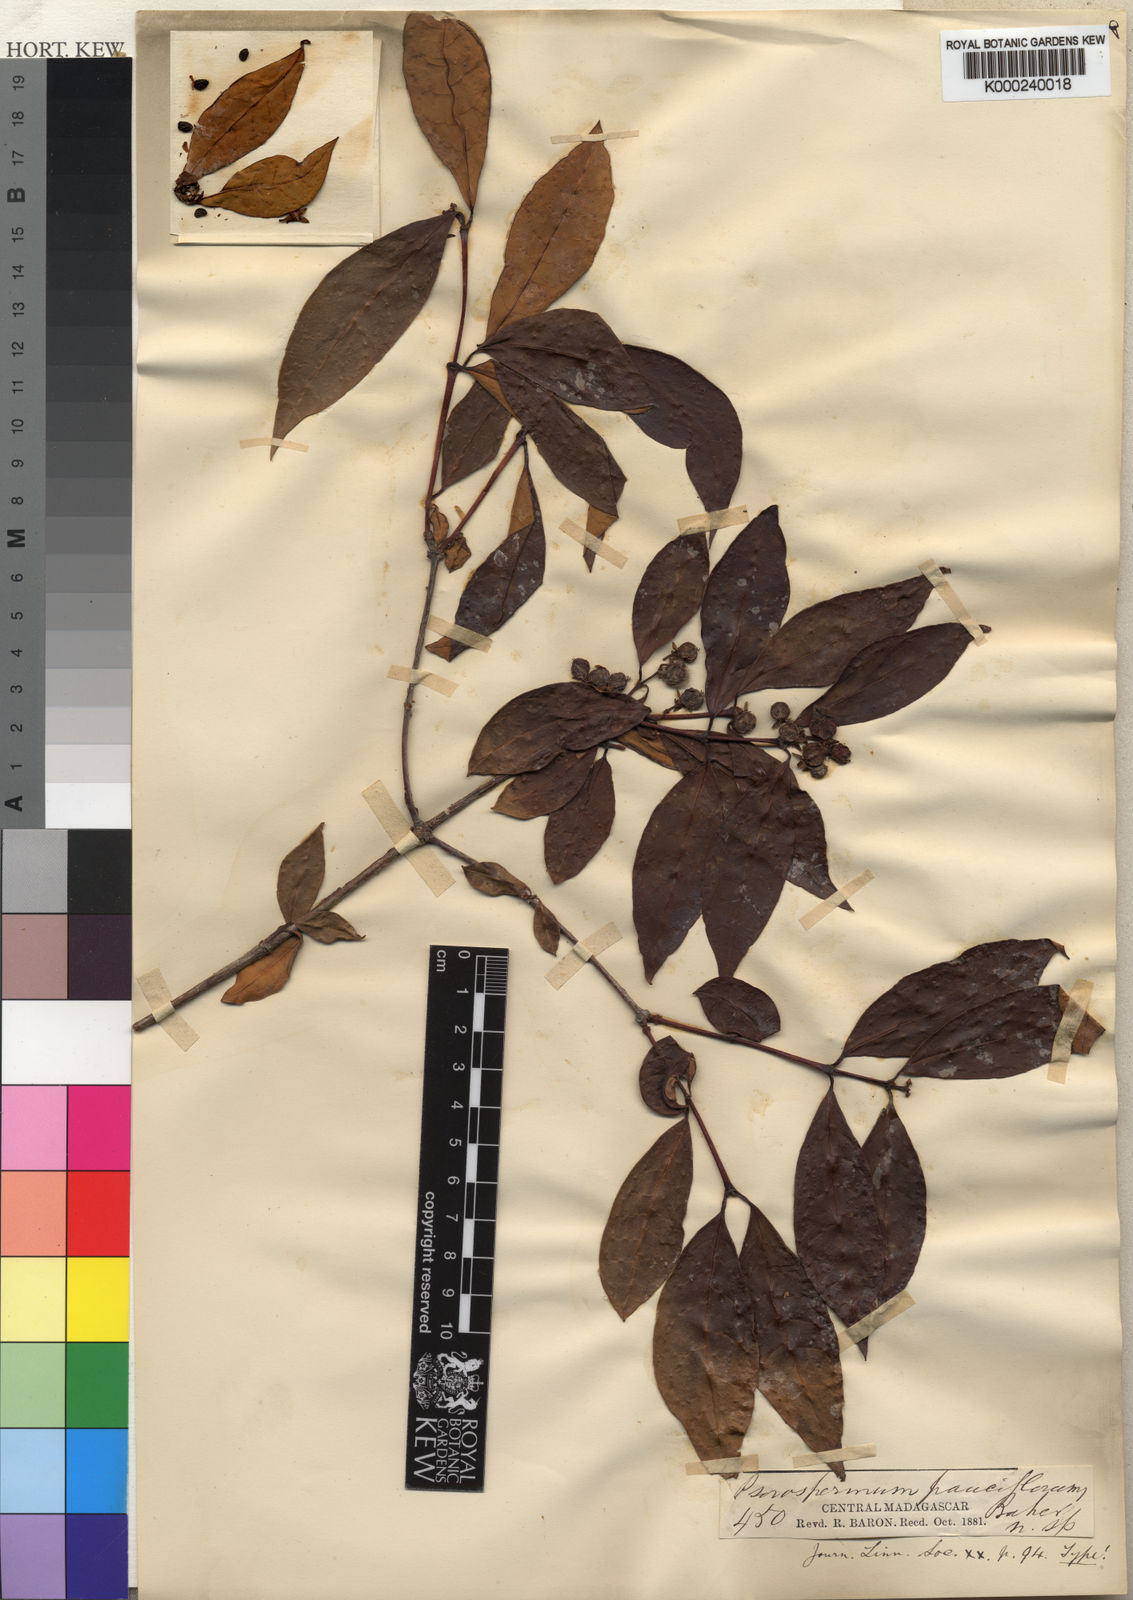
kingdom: Plantae
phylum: Tracheophyta
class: Magnoliopsida
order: Malpighiales
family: Hypericaceae
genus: Psorospermum
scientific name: Psorospermum cerasifolium
